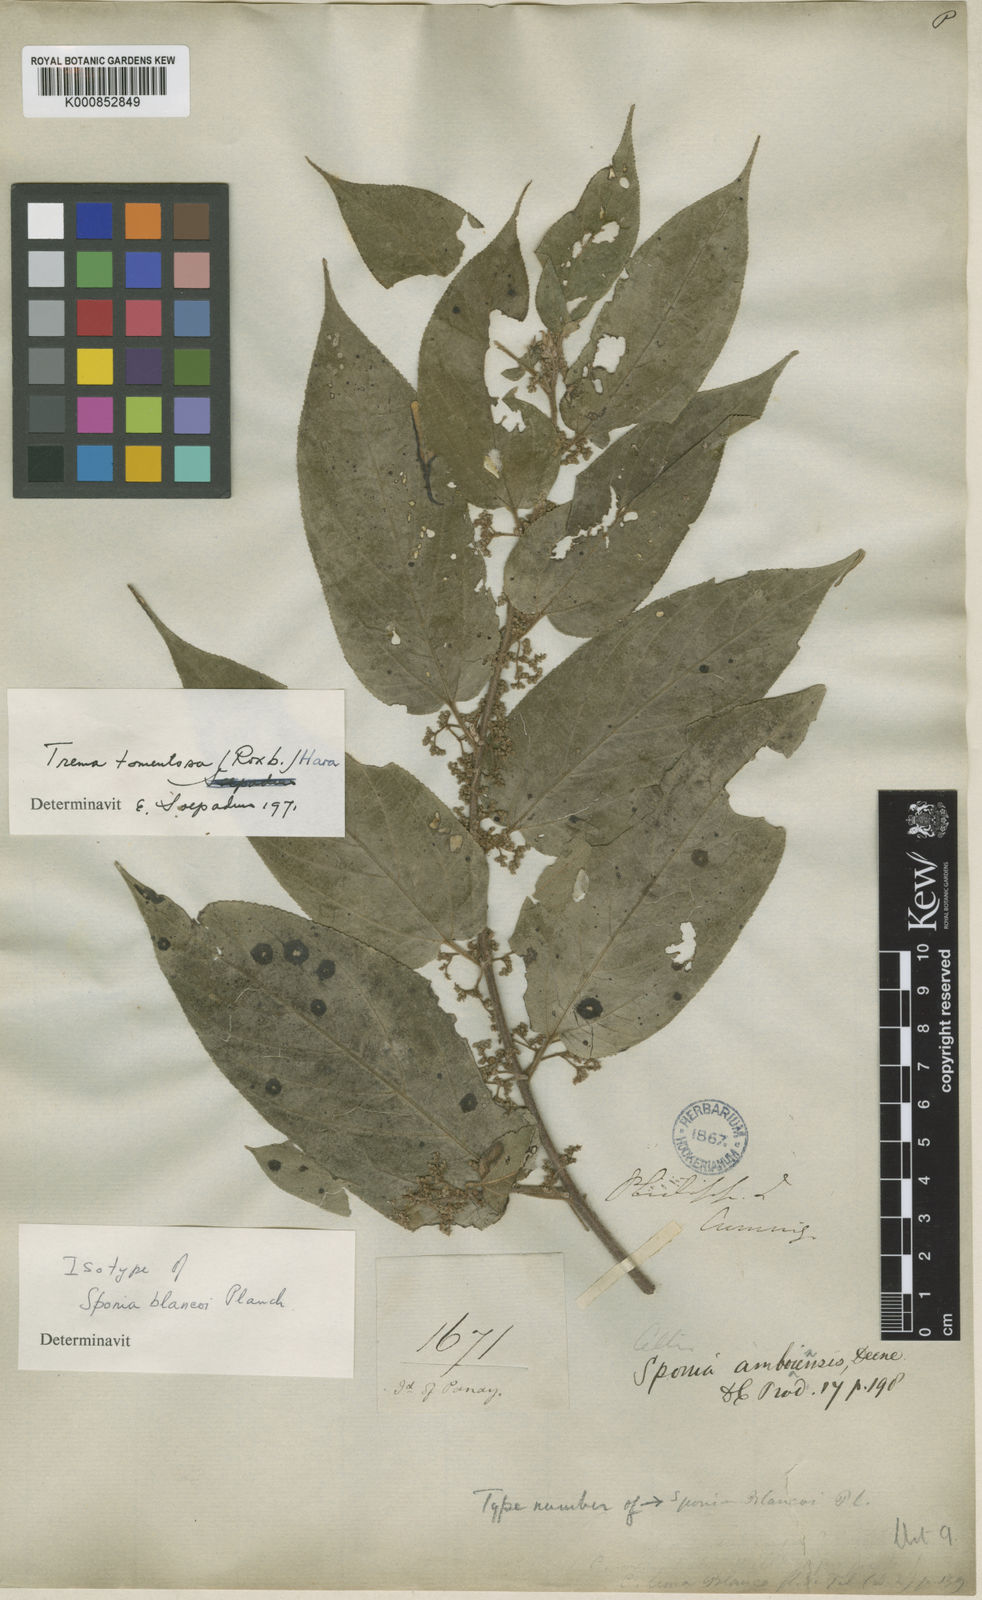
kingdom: Plantae
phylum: Tracheophyta
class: Magnoliopsida
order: Rosales
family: Cannabaceae
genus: Trema
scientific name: Trema tomentosum
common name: Peach-leaf-poisonbush
